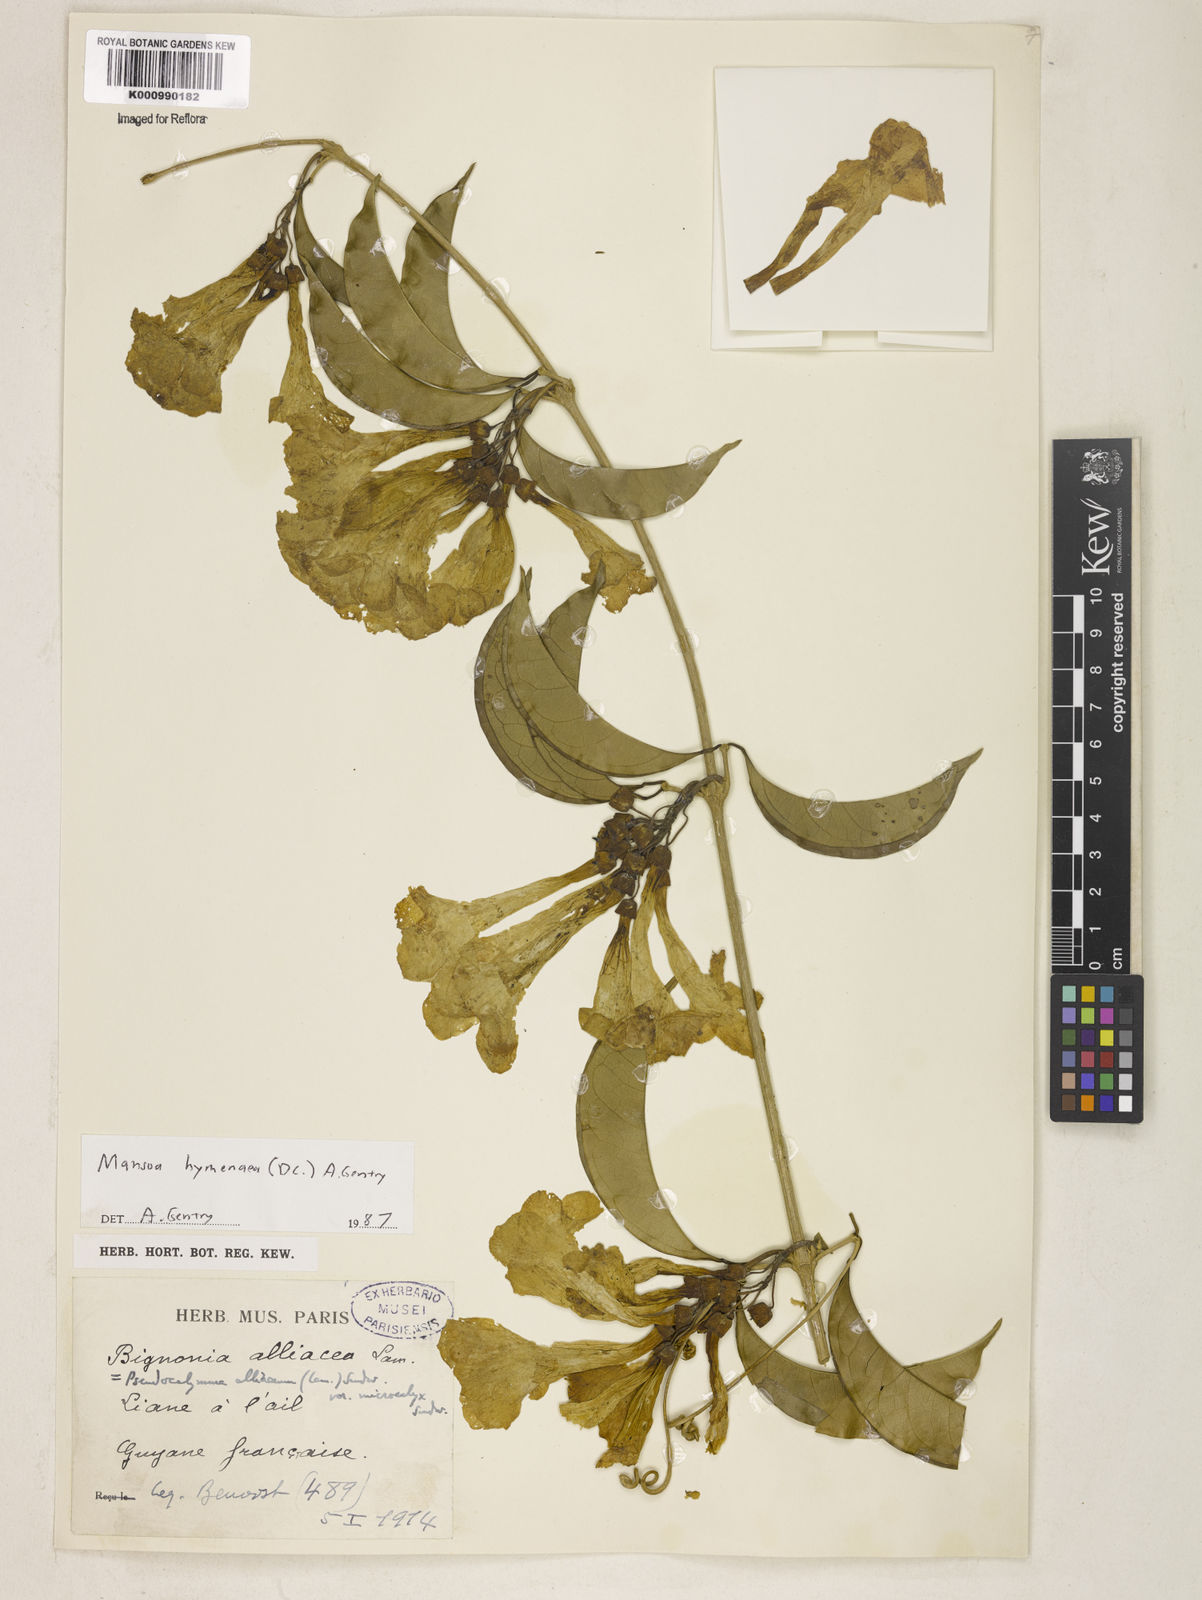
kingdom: Plantae
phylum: Tracheophyta
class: Magnoliopsida
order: Lamiales
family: Bignoniaceae
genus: Mansoa
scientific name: Mansoa hymenaea
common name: Membranous garlic vine
